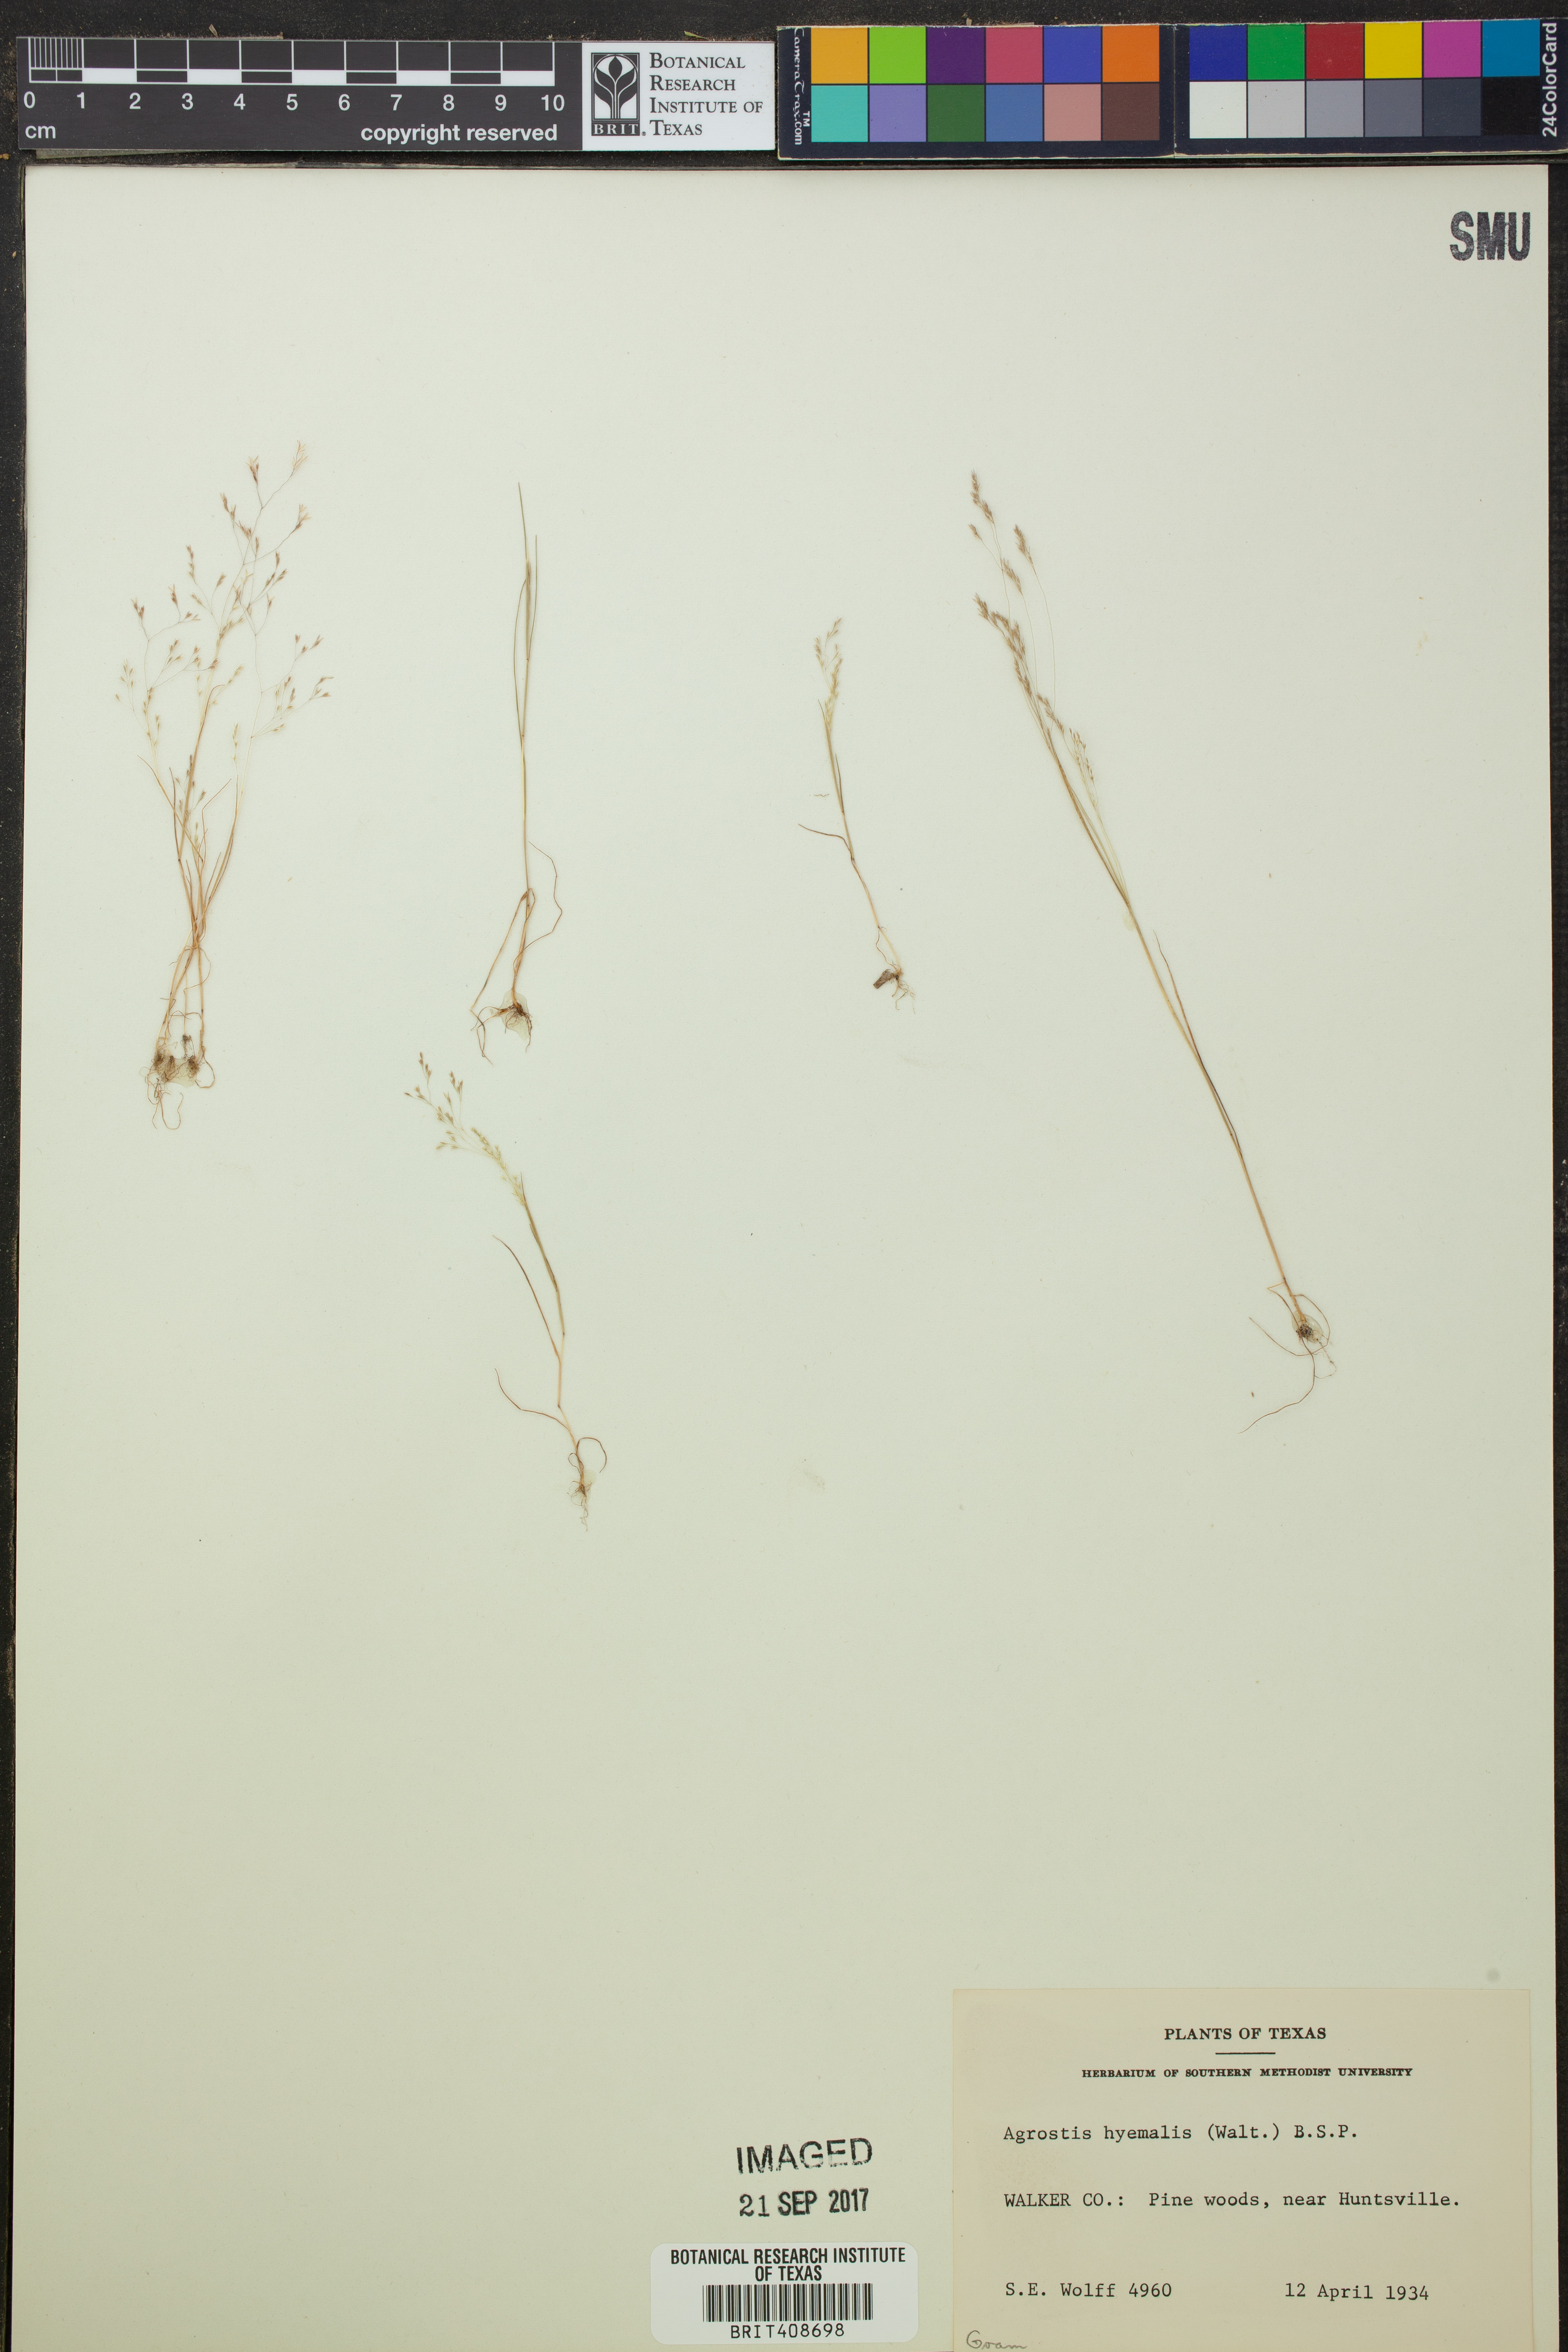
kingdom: Plantae
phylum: Tracheophyta
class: Liliopsida
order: Poales
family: Poaceae
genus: Agrostis
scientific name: Agrostis hyemalis
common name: Small bent
